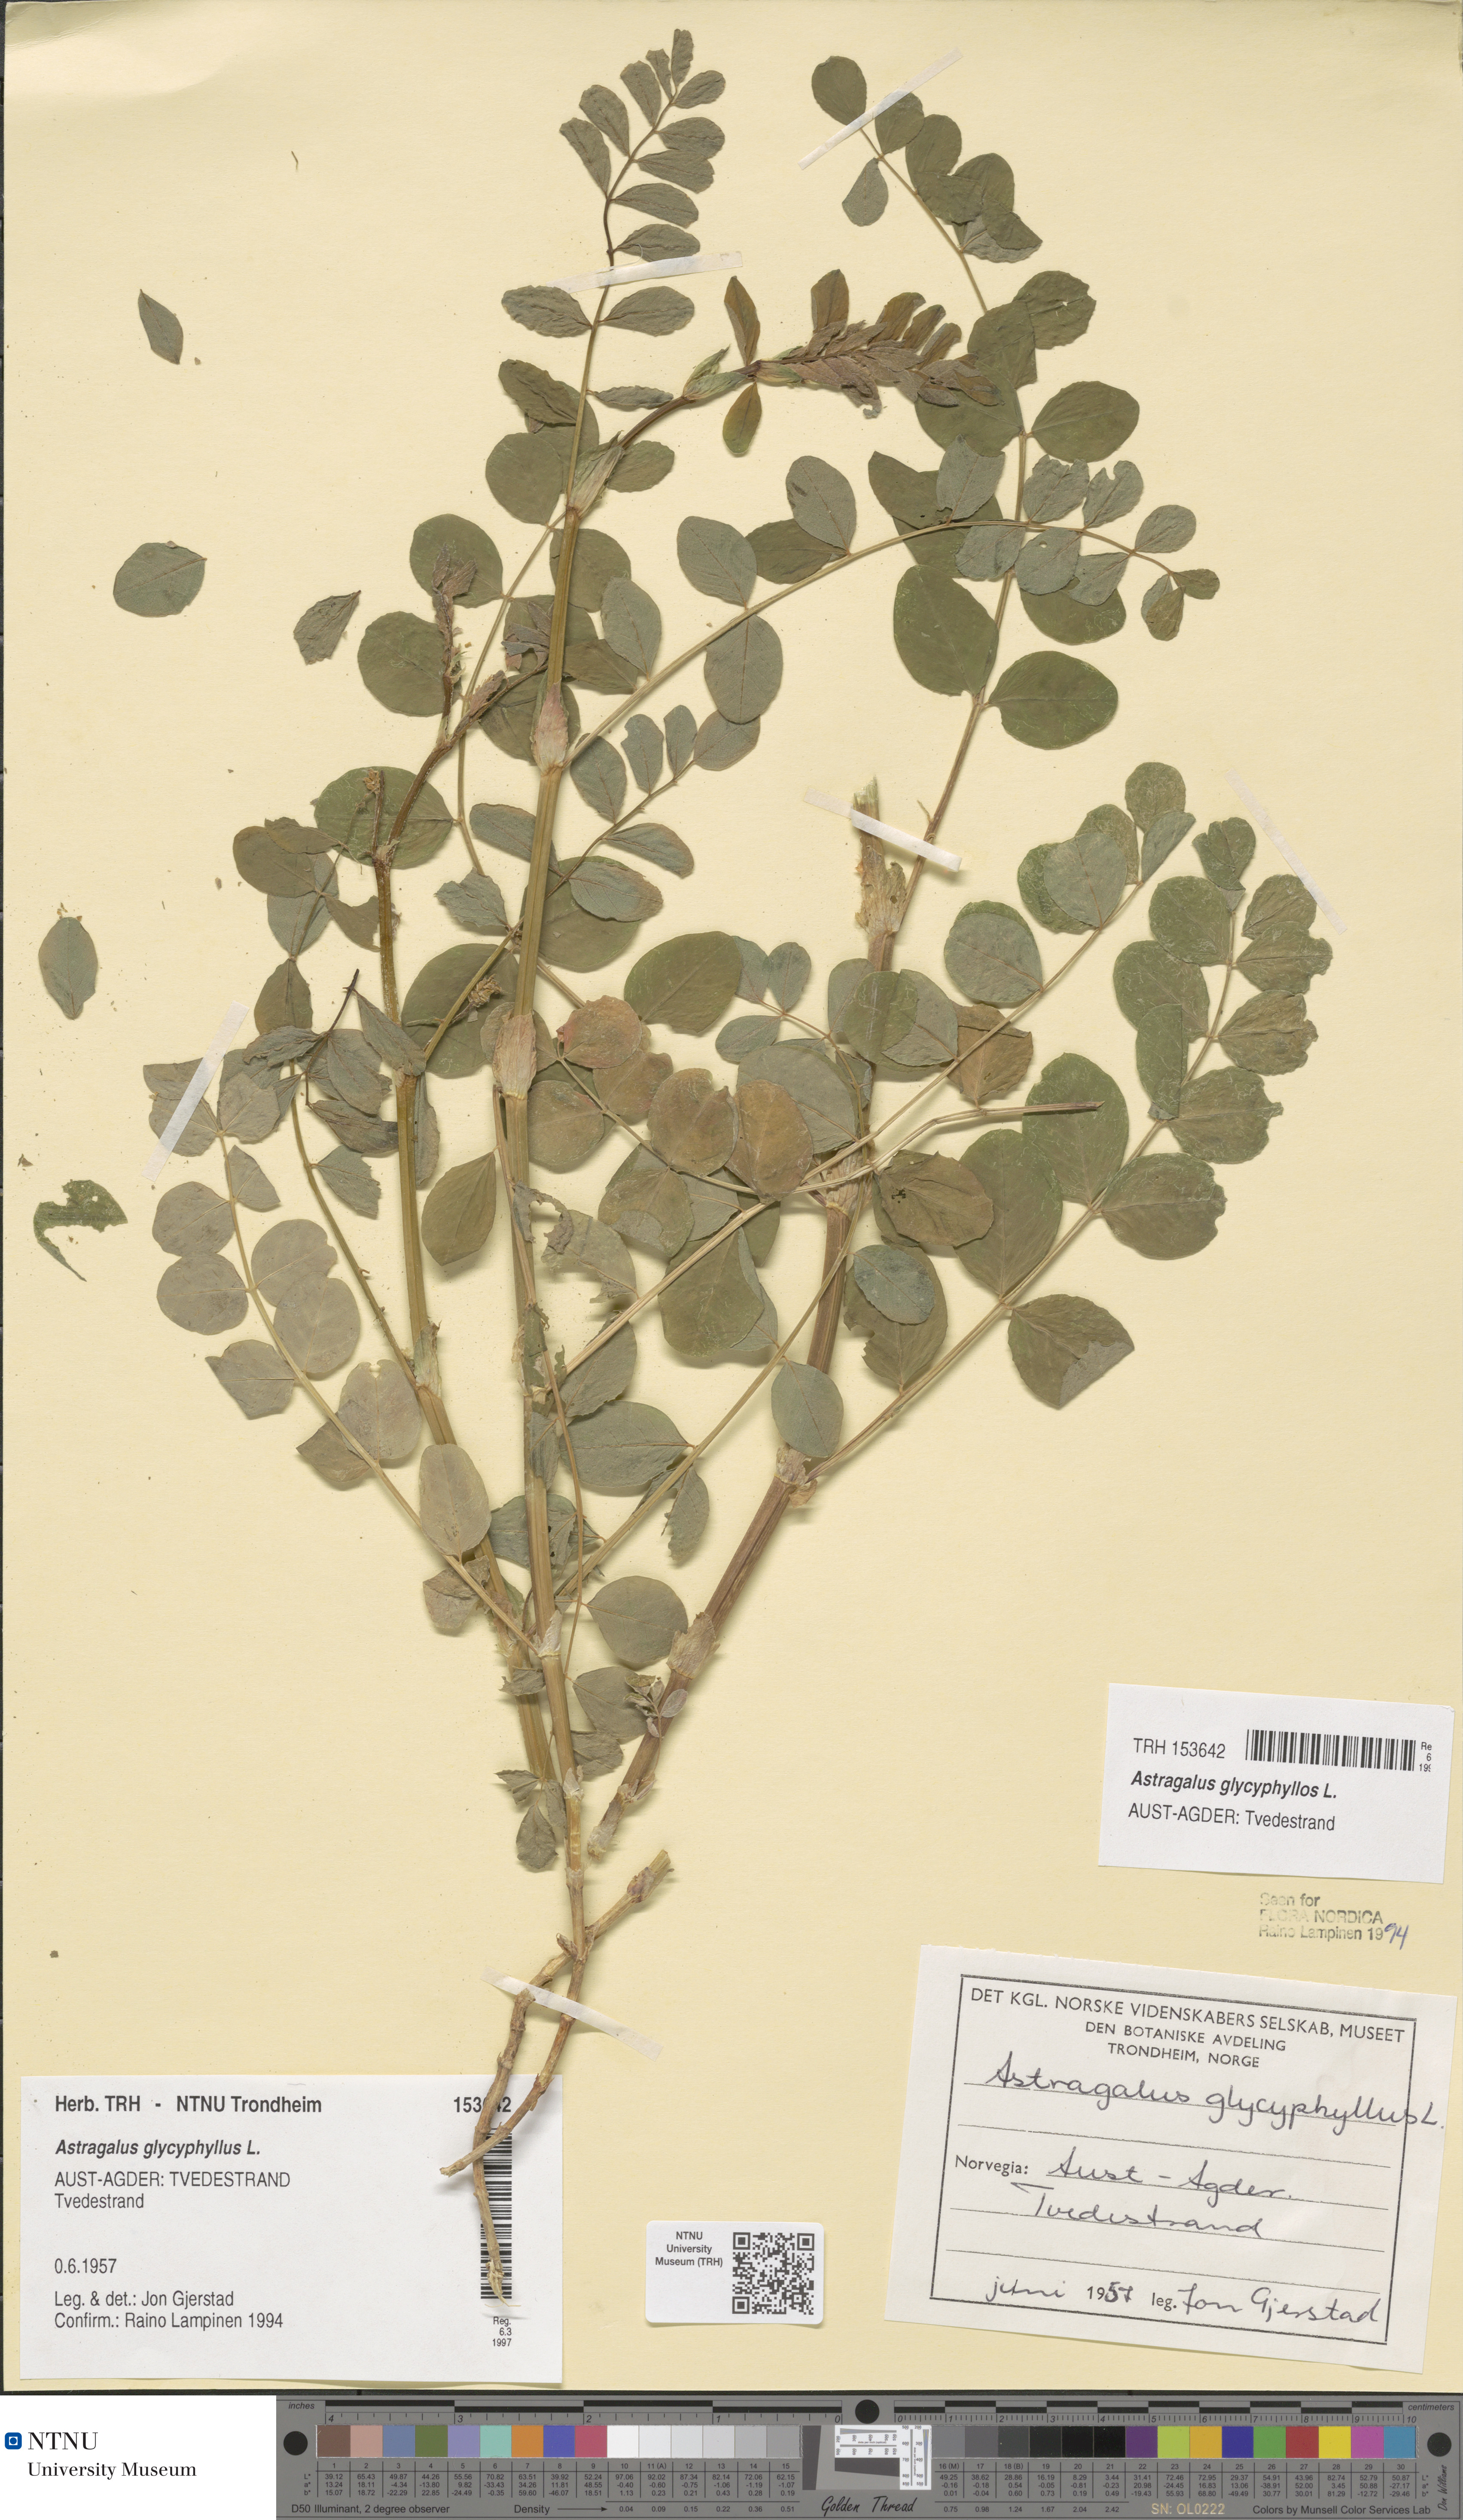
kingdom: Plantae
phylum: Tracheophyta
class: Magnoliopsida
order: Fabales
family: Fabaceae
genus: Astragalus
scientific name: Astragalus glycyphyllos
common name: Wild liquorice
